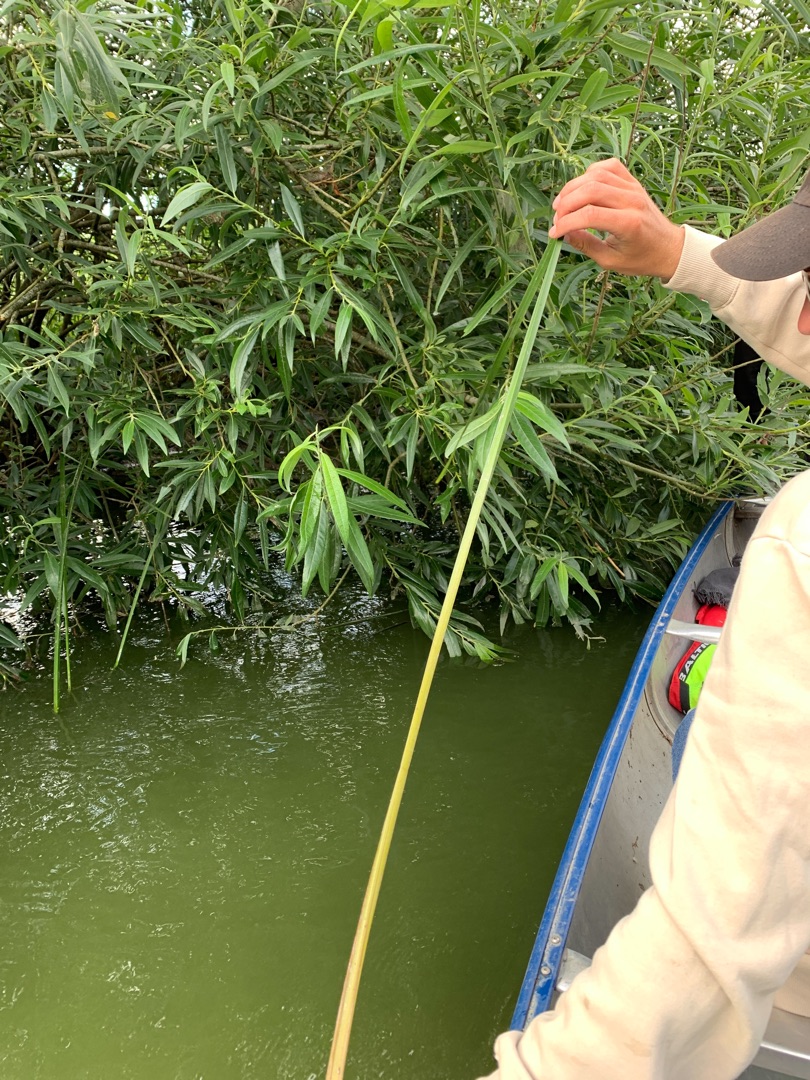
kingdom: Plantae
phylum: Tracheophyta
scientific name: Tracheophyta
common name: Karplanter
